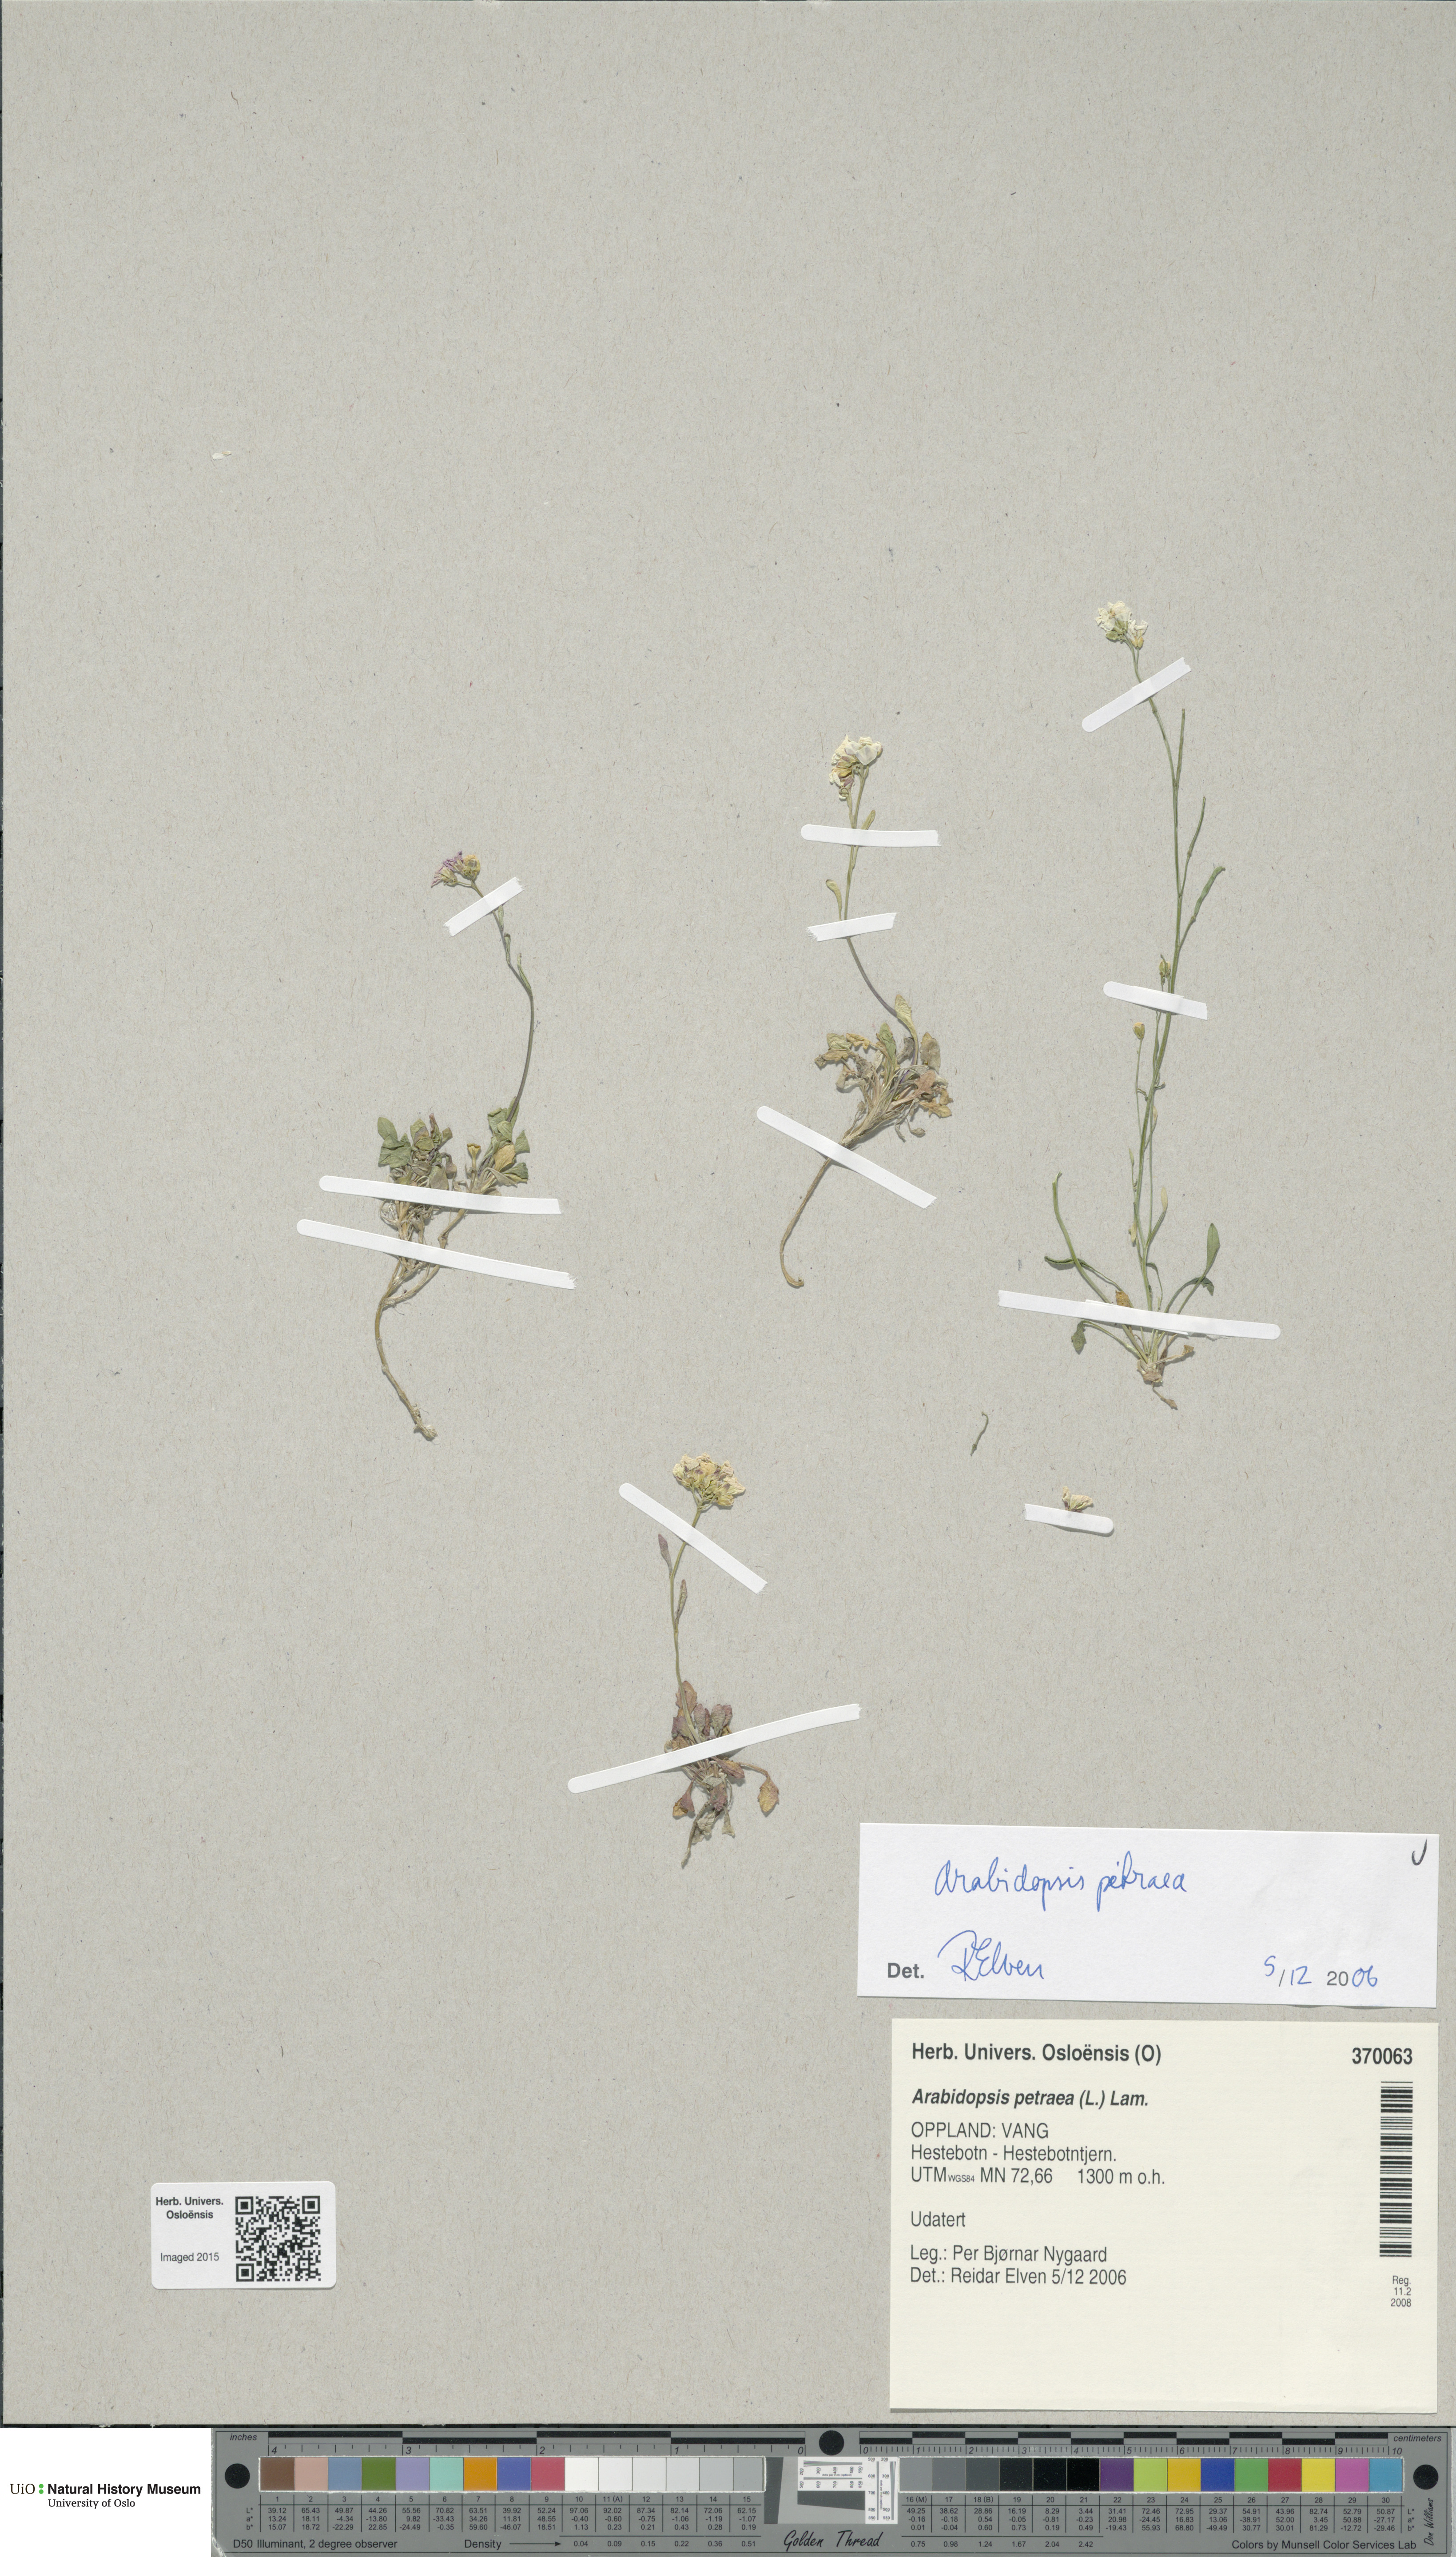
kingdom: Plantae
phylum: Tracheophyta
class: Magnoliopsida
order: Brassicales
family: Brassicaceae
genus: Arabidopsis
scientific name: Arabidopsis petraea
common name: Northern rock-cress
